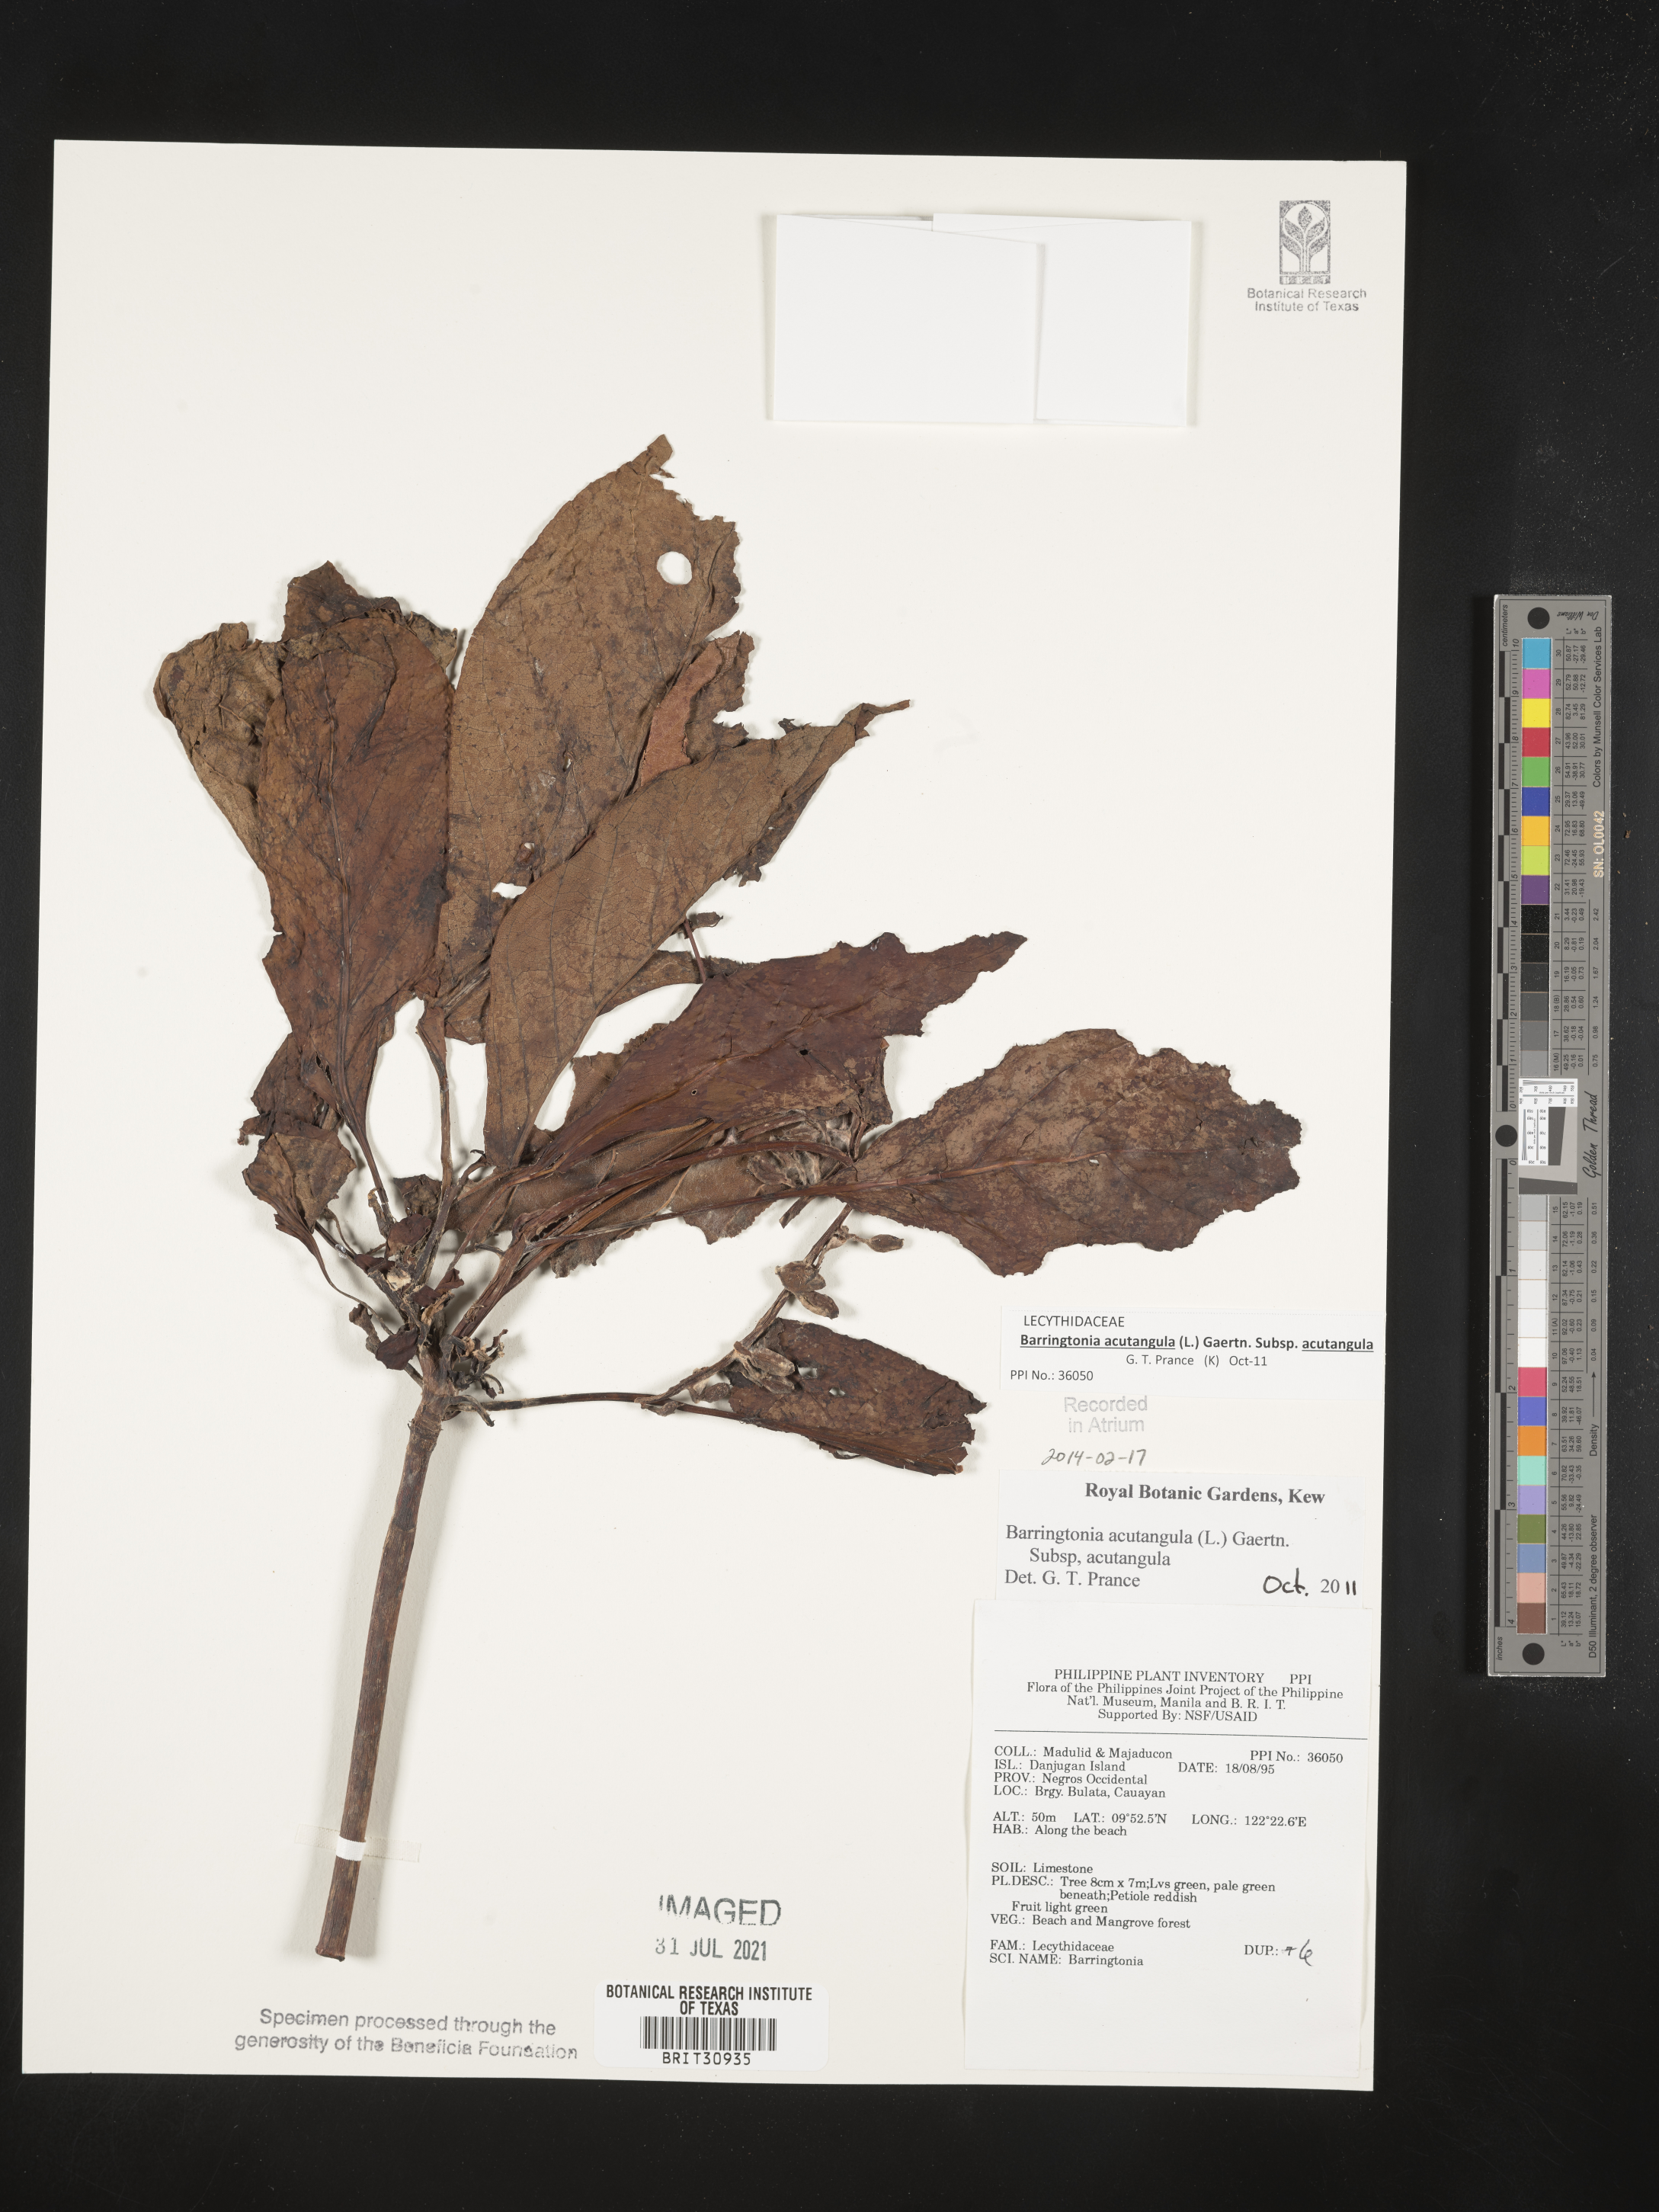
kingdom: Plantae
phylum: Tracheophyta
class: Magnoliopsida
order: Ericales
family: Lecythidaceae
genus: Barringtonia
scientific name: Barringtonia
